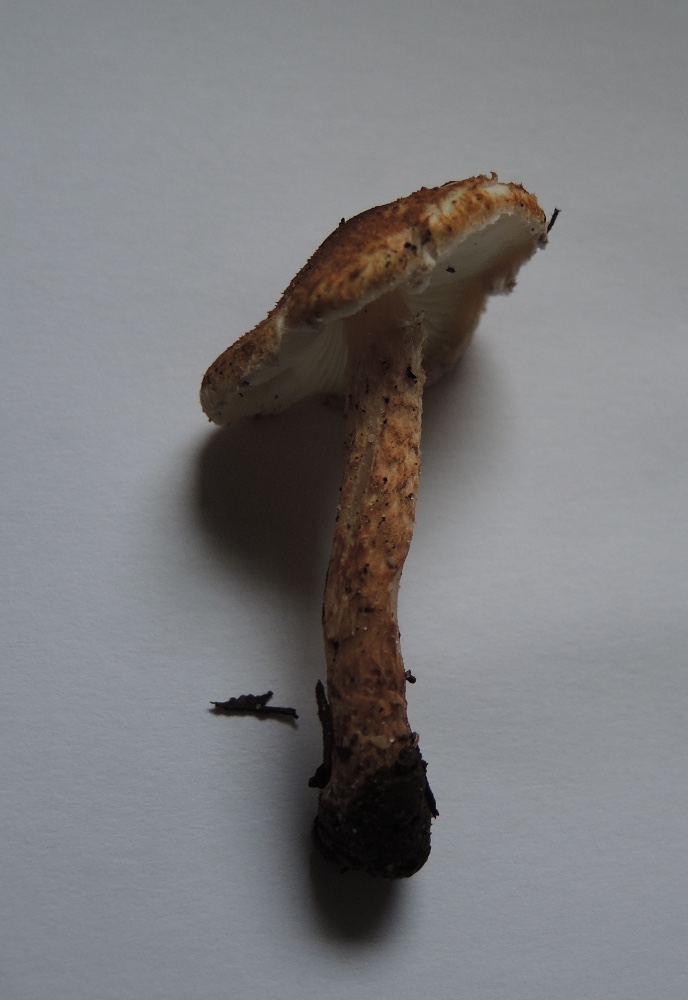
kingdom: Fungi
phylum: Basidiomycota
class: Agaricomycetes
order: Agaricales
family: Agaricaceae
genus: Leucocoprinus
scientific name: Leucocoprinus straminellus
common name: rustbrun parasolhat
